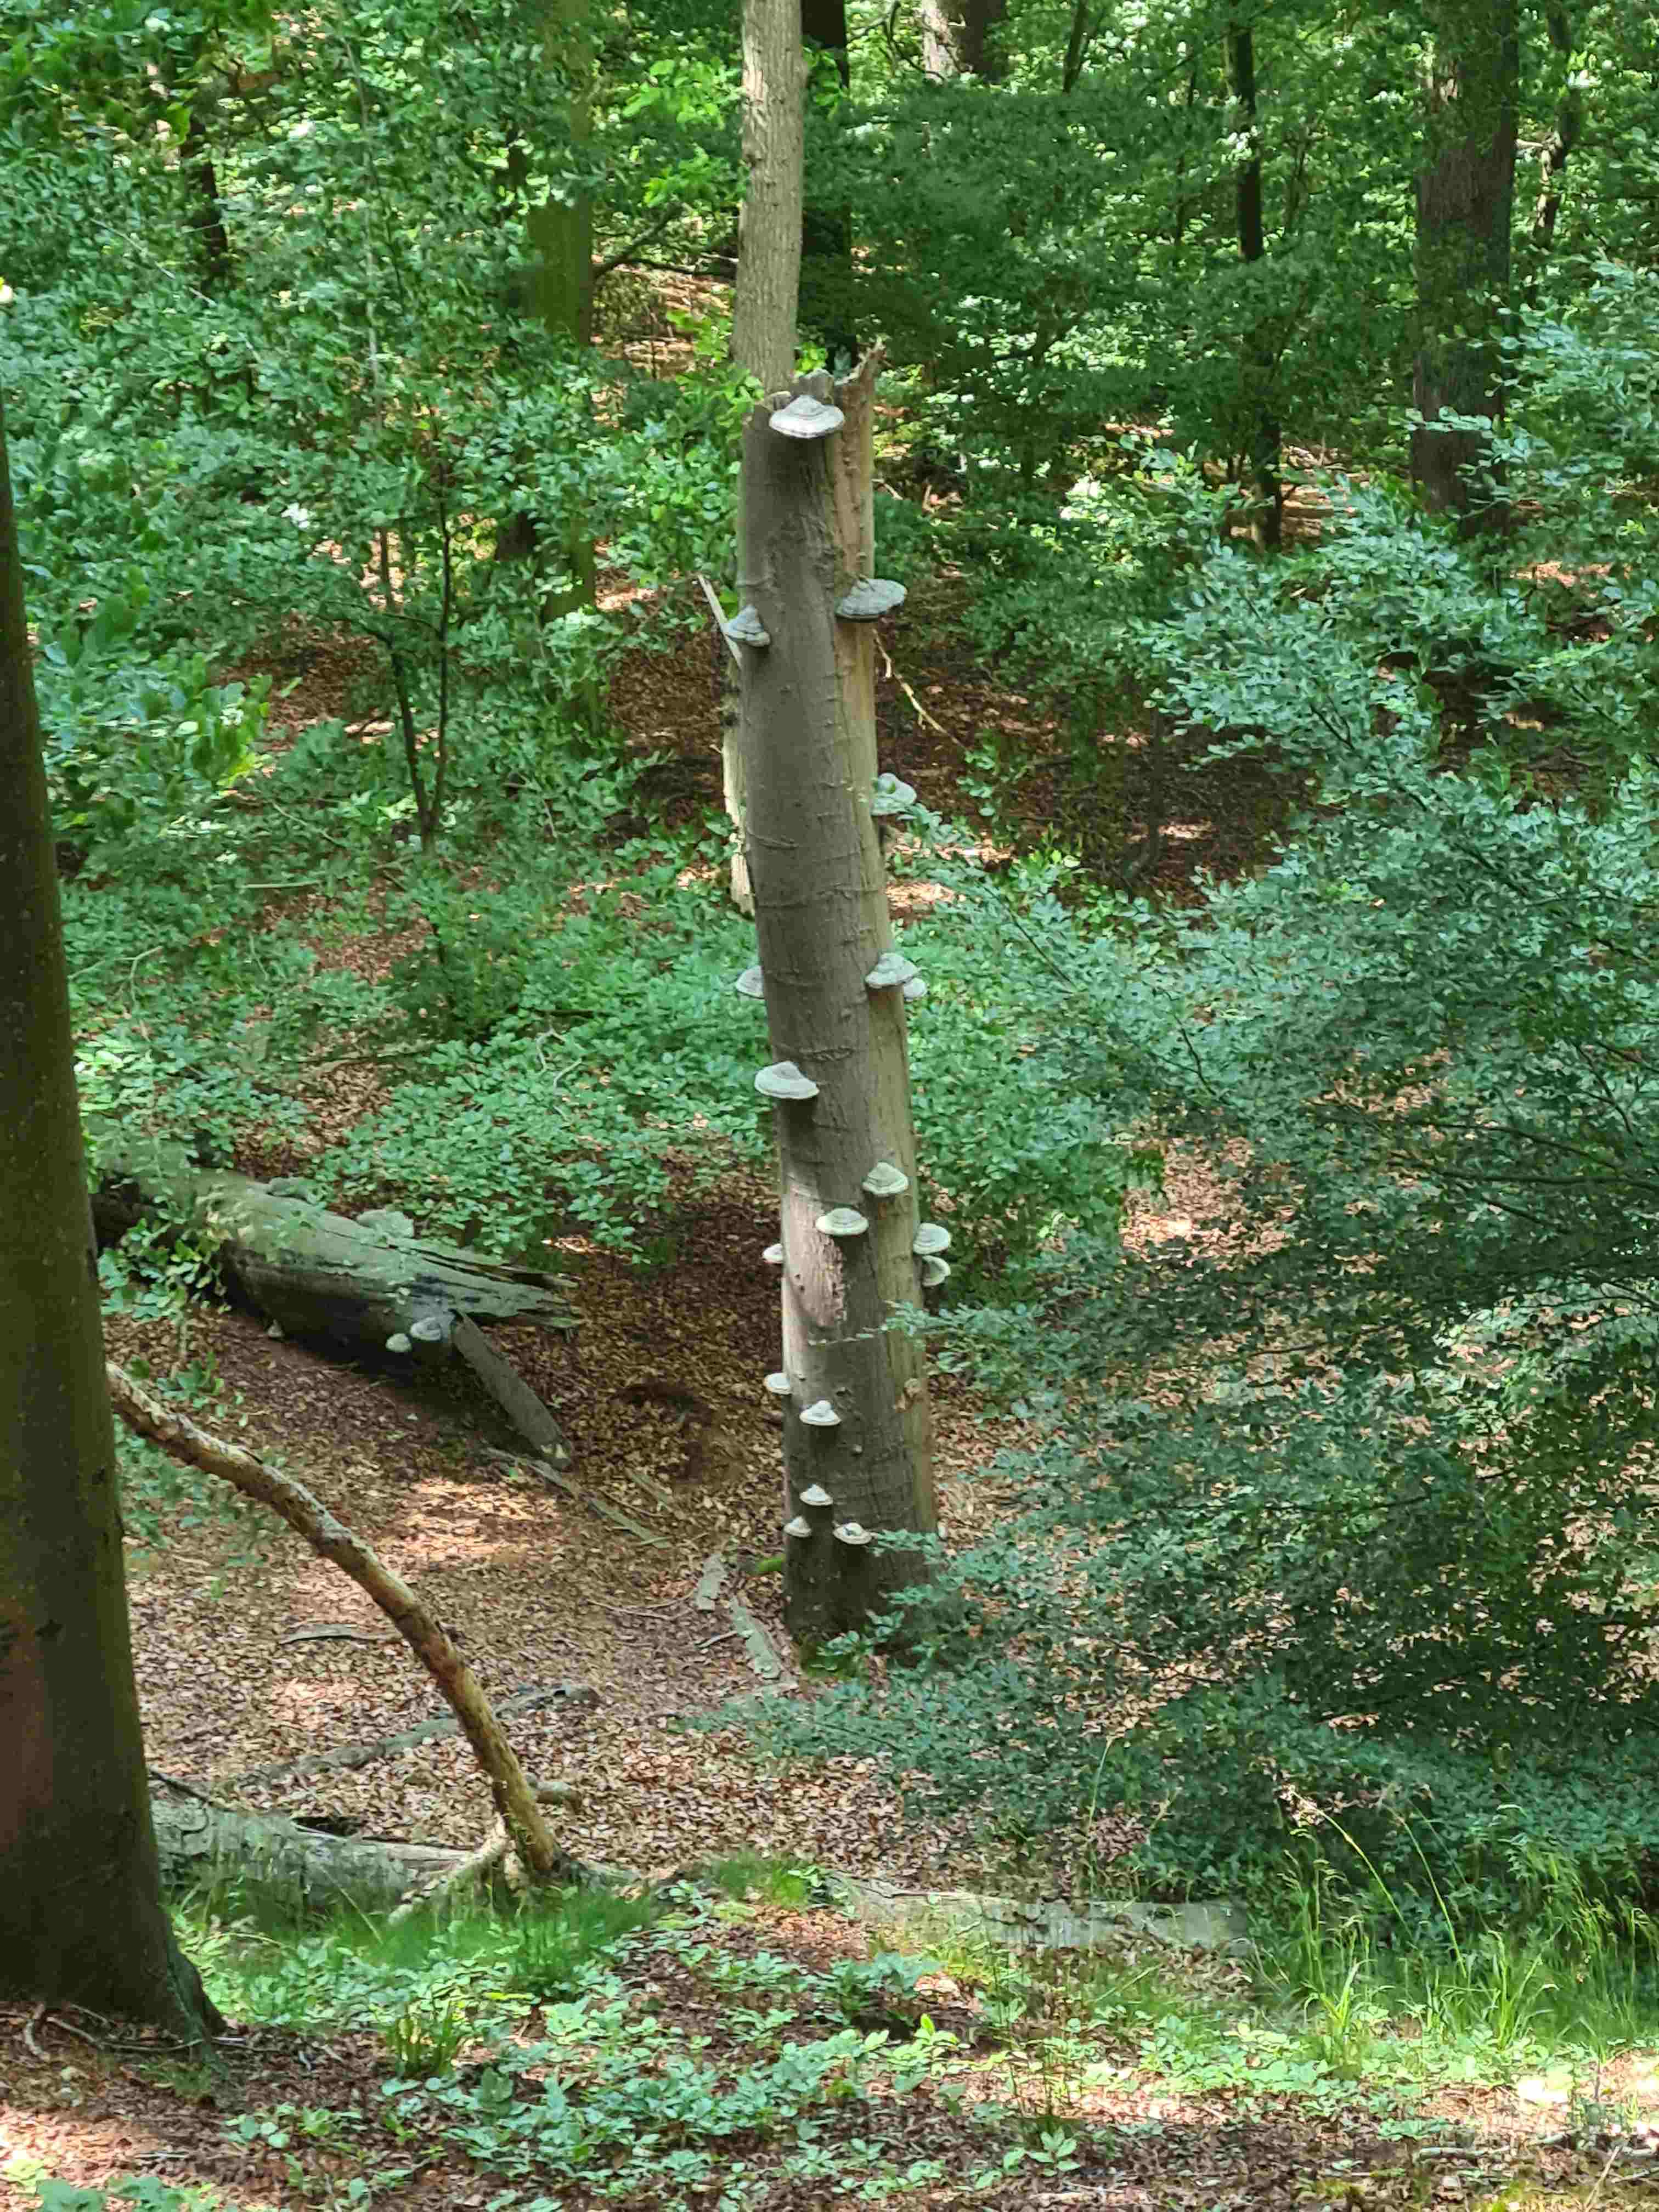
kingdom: Fungi
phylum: Basidiomycota
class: Agaricomycetes
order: Polyporales
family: Polyporaceae
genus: Fomes
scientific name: Fomes fomentarius
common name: tøndersvamp
